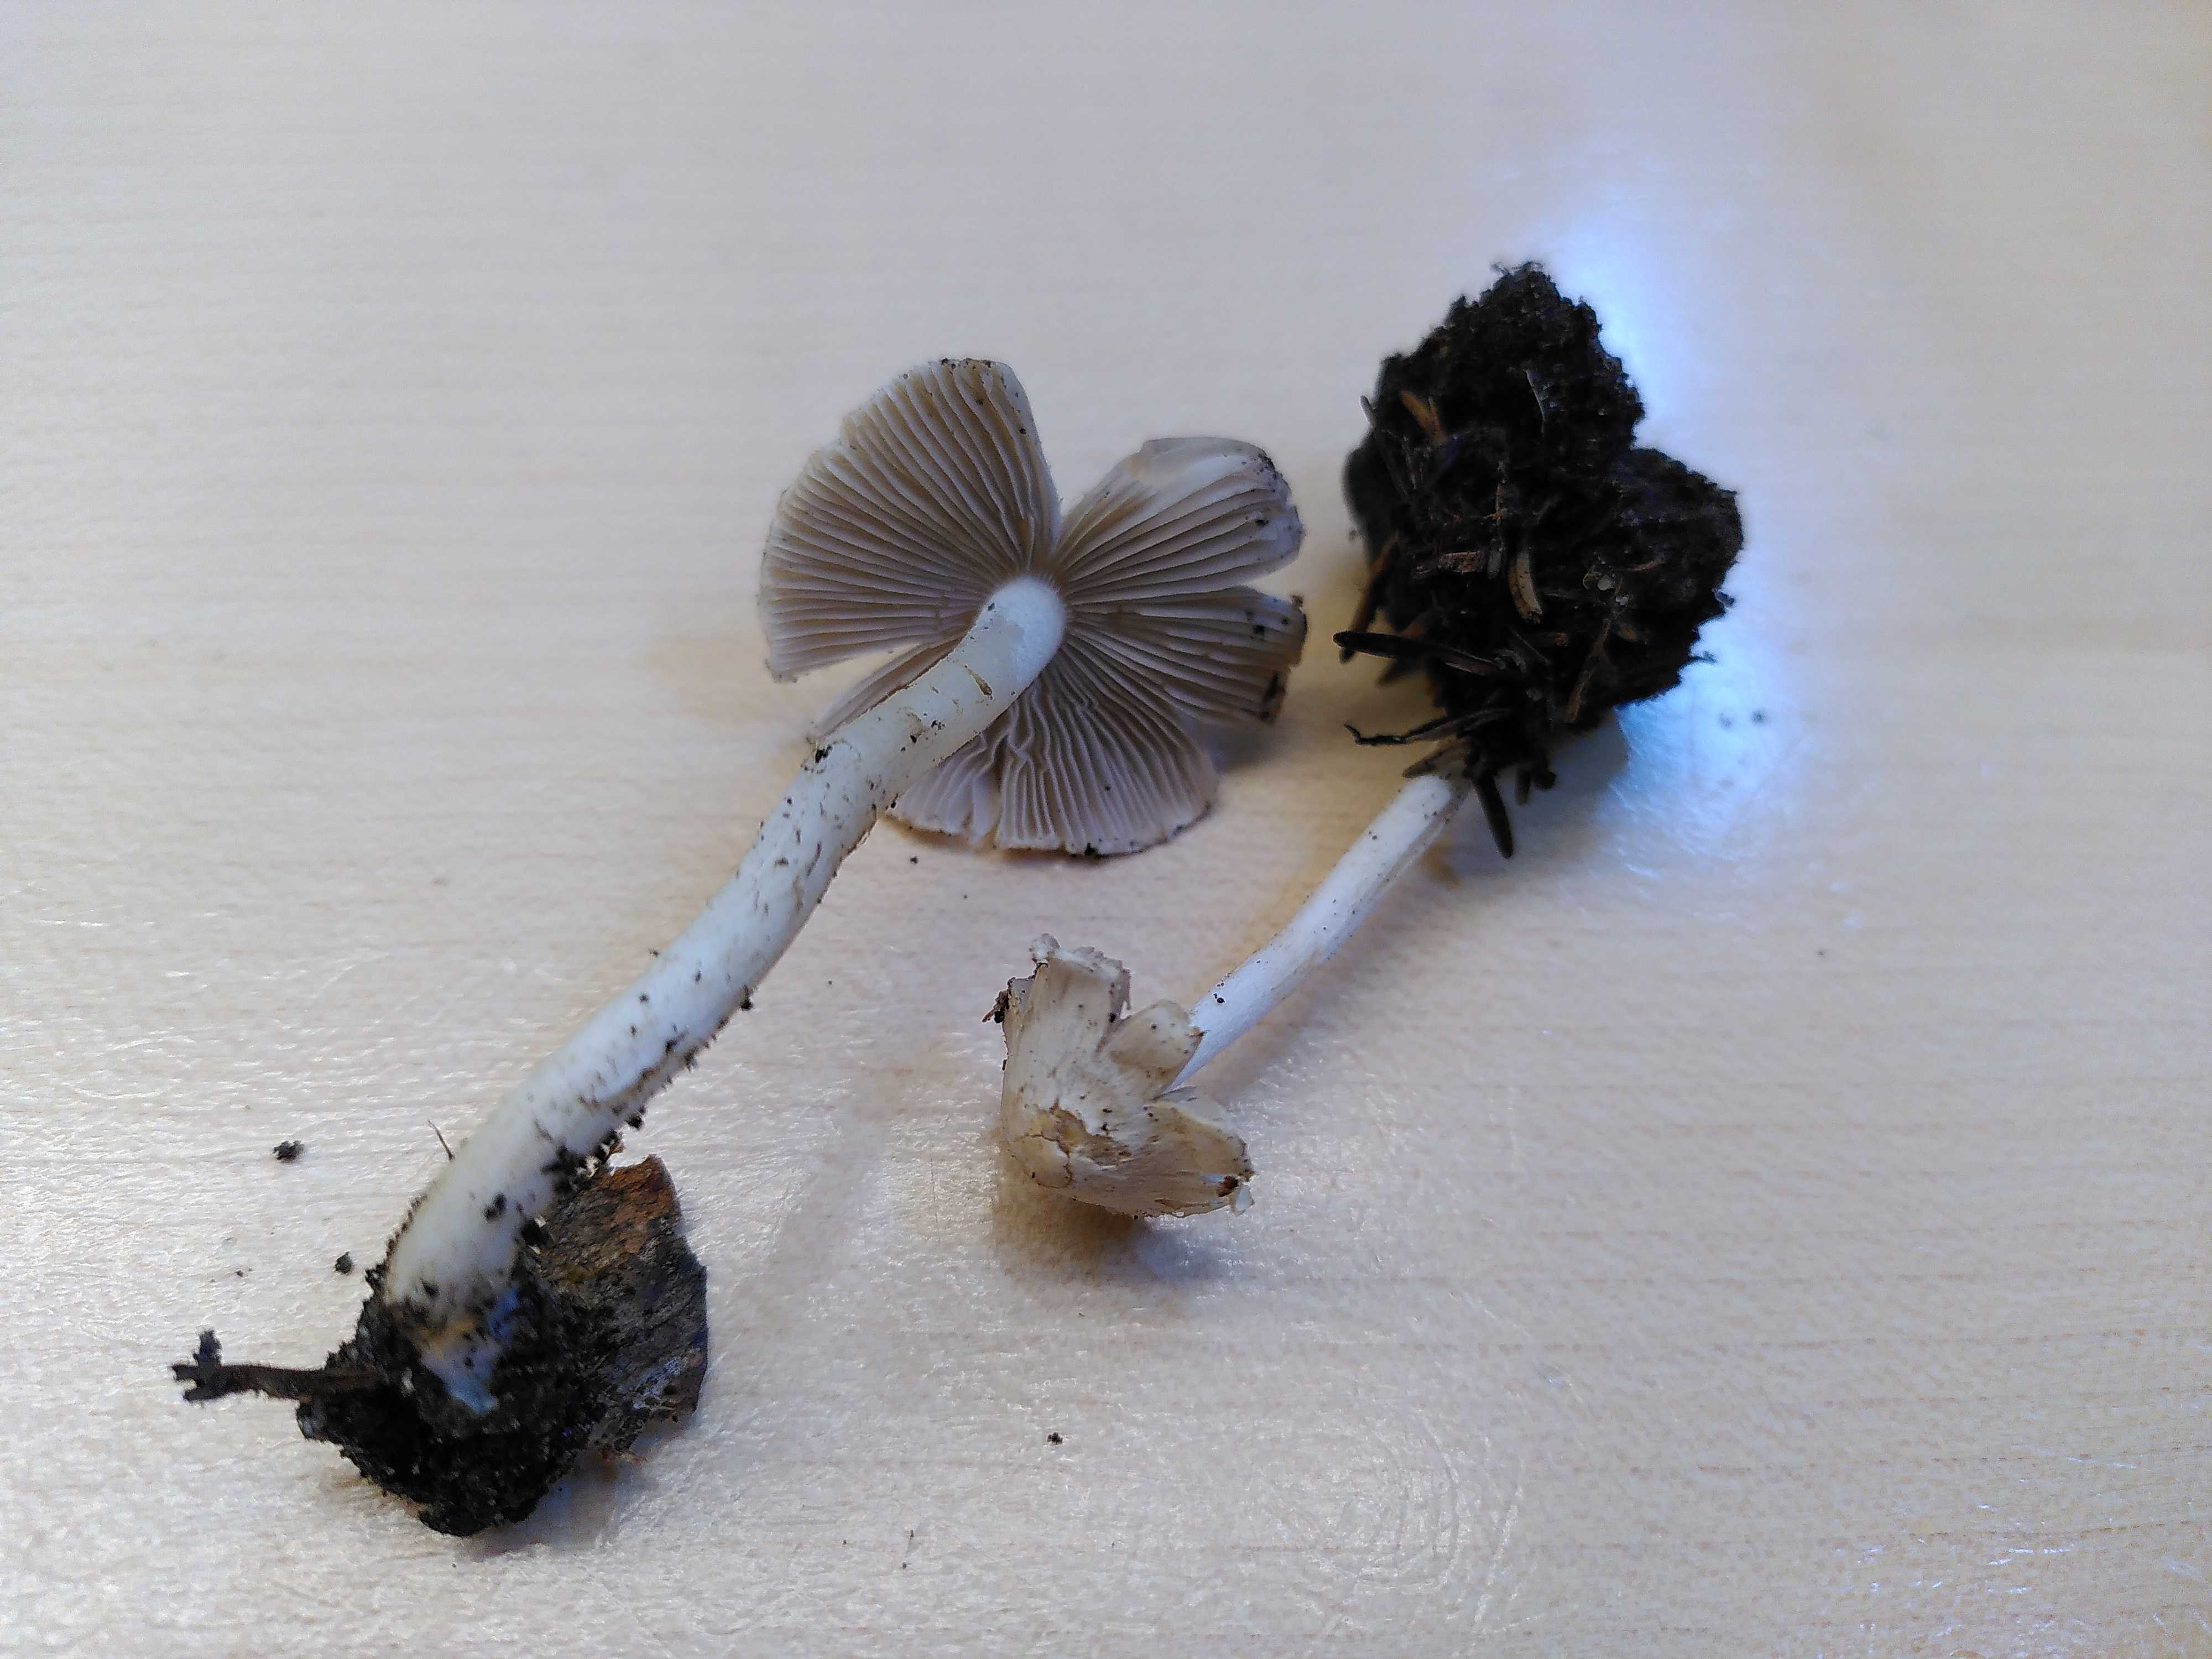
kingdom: Fungi
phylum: Basidiomycota
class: Agaricomycetes
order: Agaricales
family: Inocybaceae
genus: Inocybe
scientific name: Inocybe
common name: trævlhat
